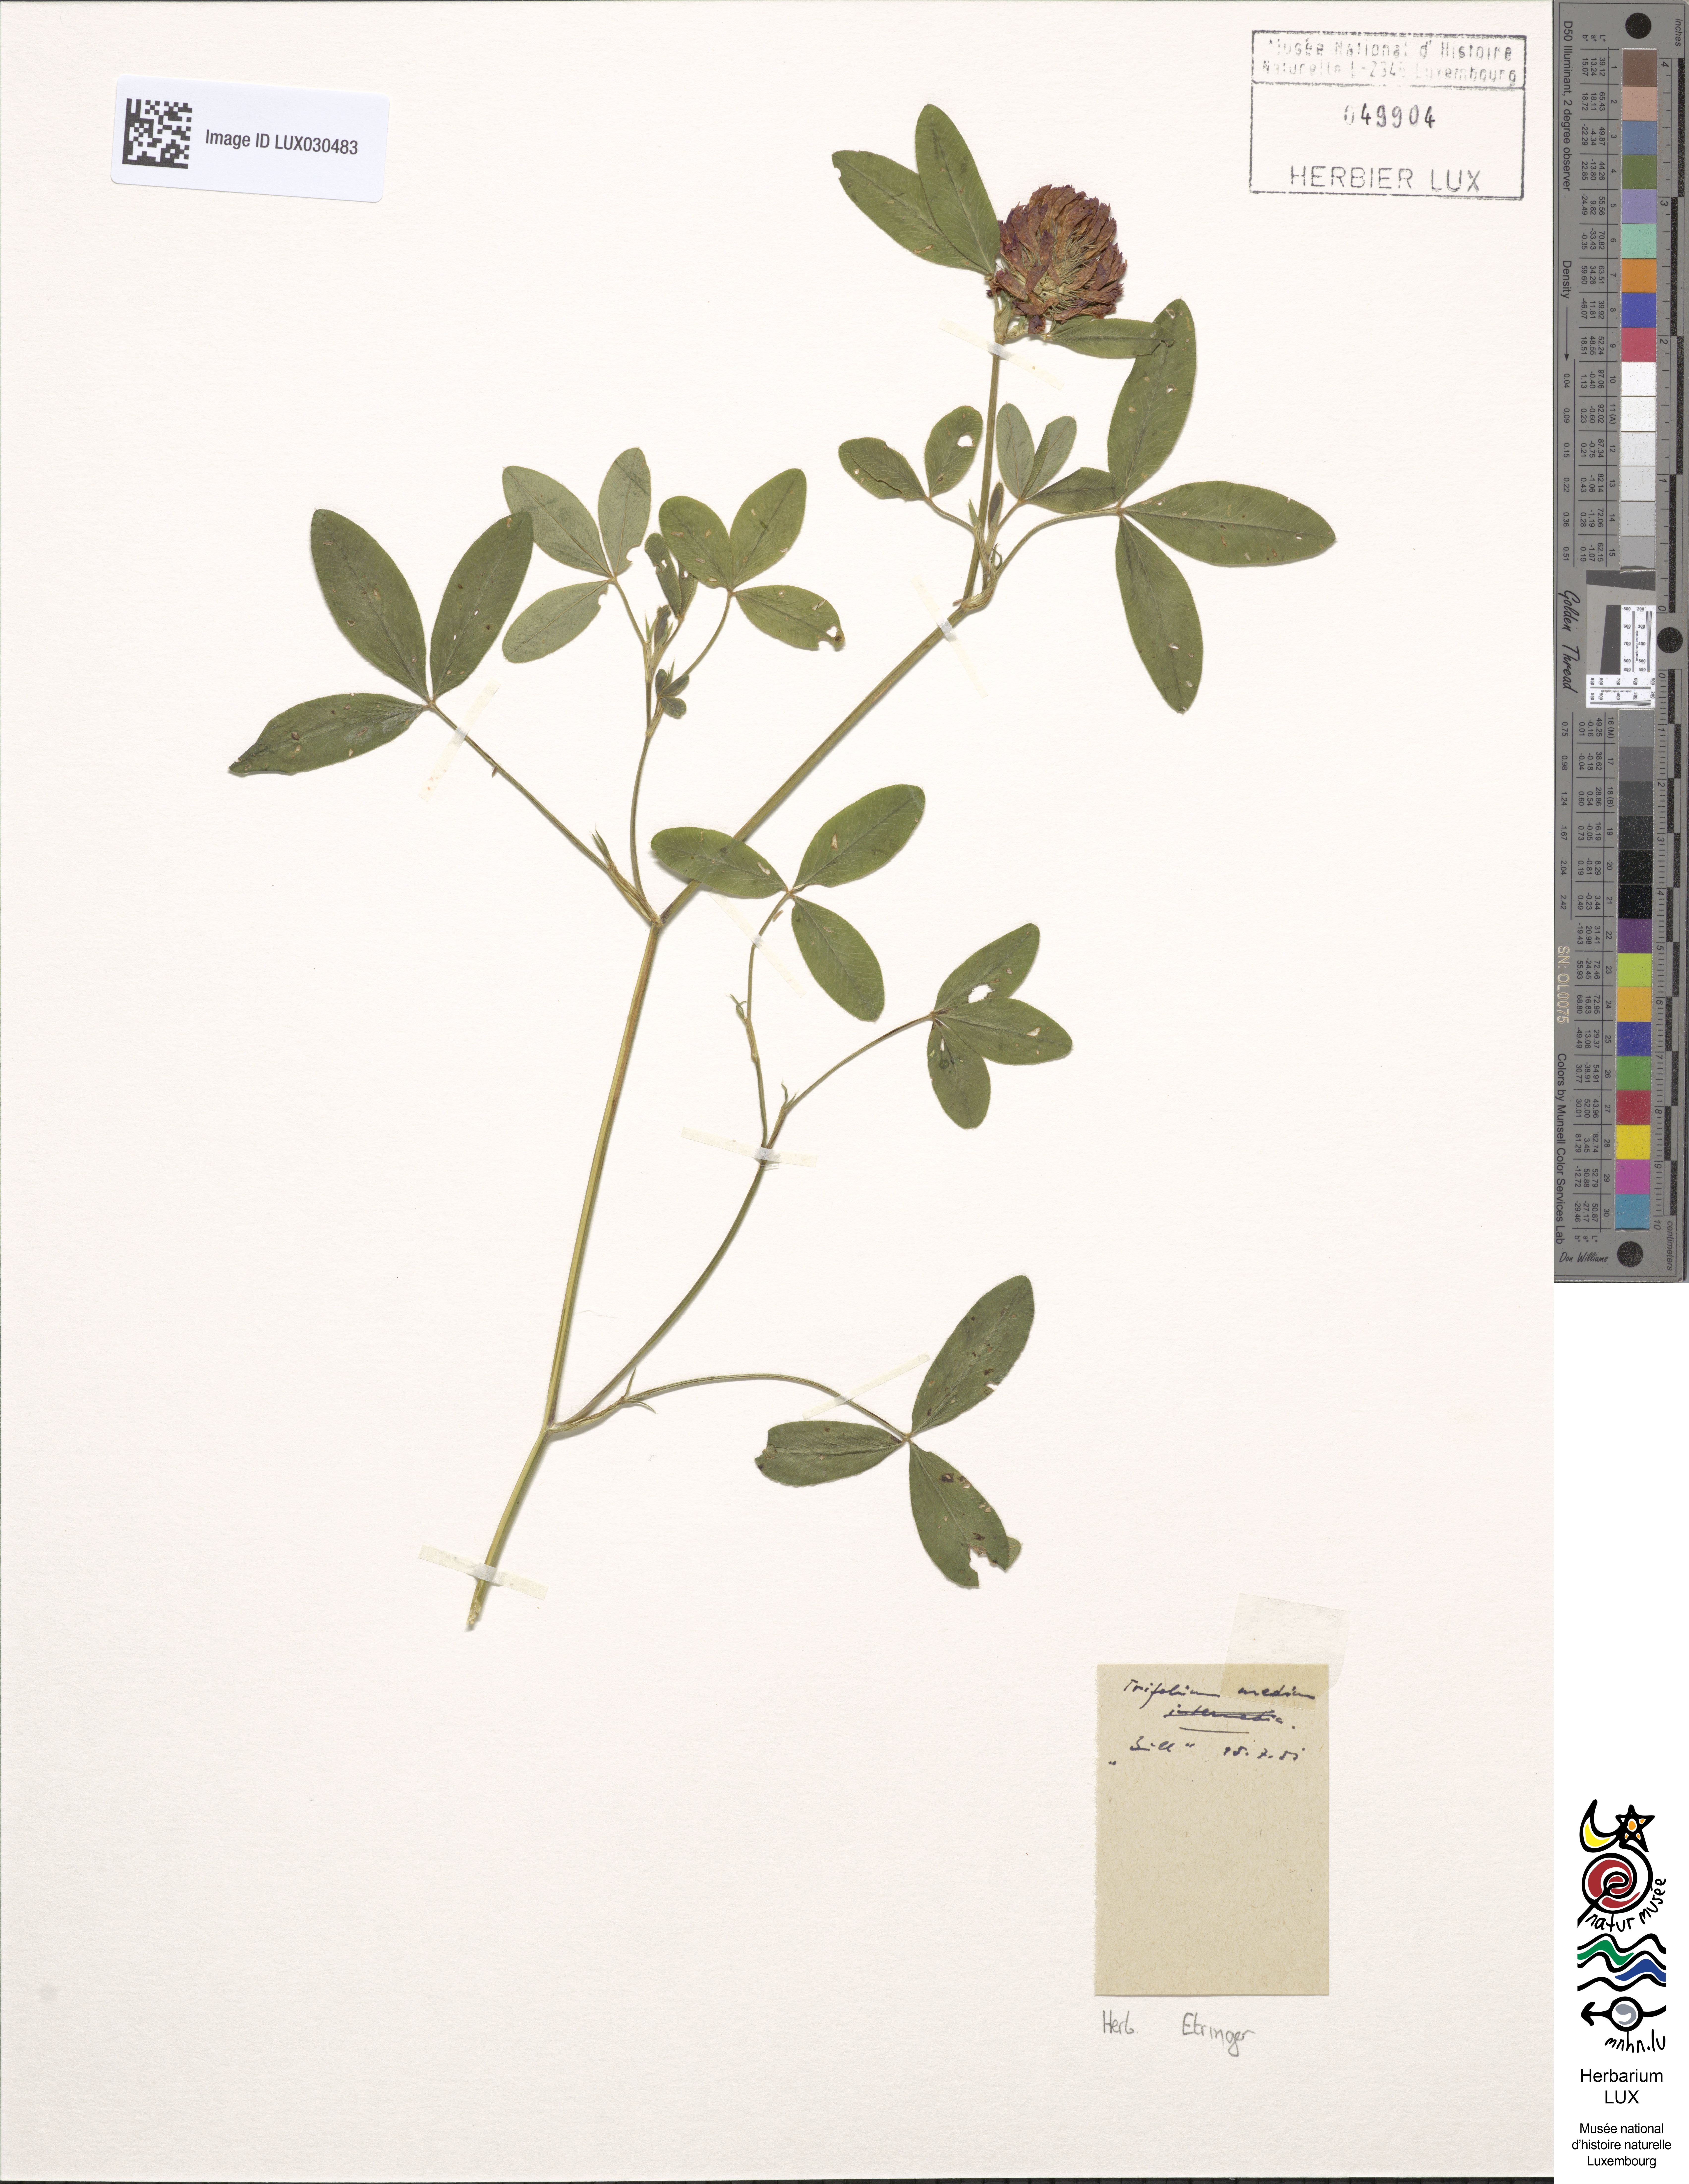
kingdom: Plantae
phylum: Tracheophyta
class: Magnoliopsida
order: Fabales
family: Fabaceae
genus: Trifolium
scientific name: Trifolium medium
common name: Zigzag clover
